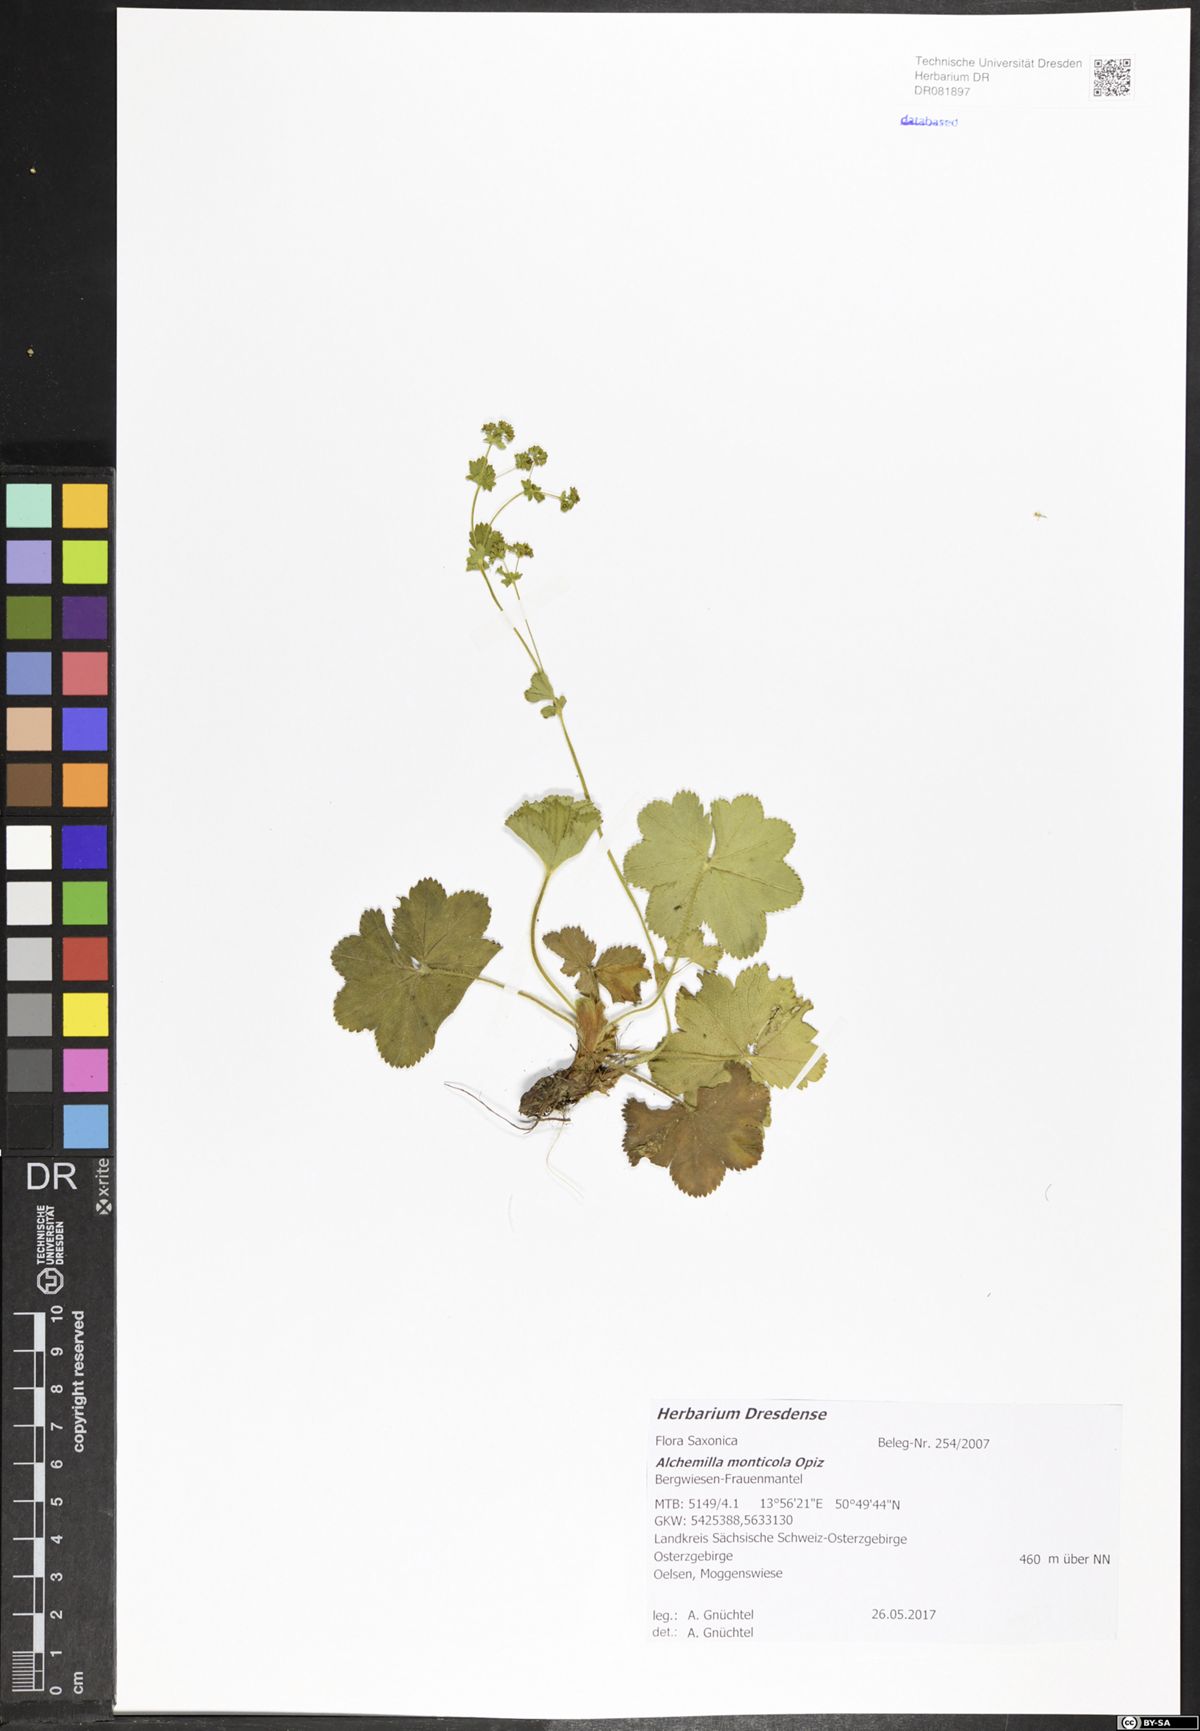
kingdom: Plantae
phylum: Tracheophyta
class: Magnoliopsida
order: Rosales
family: Rosaceae
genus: Alchemilla
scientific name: Alchemilla monticola
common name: Hairy lady's mantle
